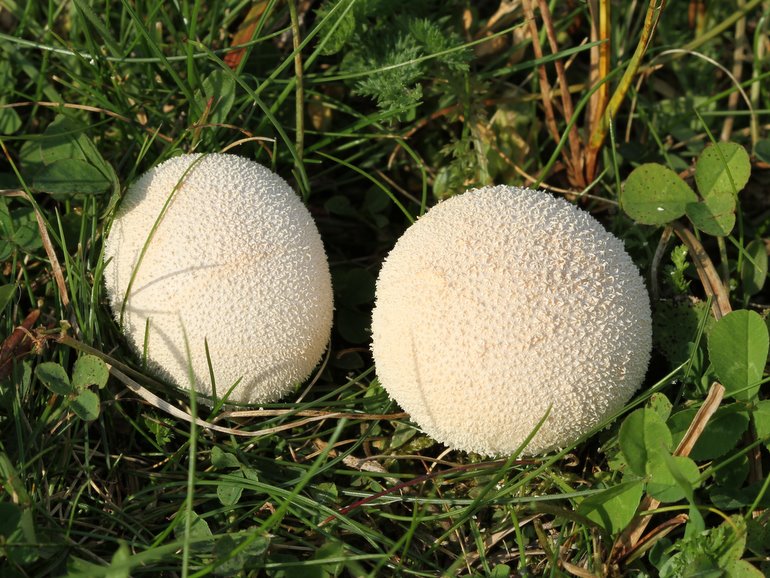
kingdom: Fungi
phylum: Basidiomycota
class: Agaricomycetes
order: Agaricales
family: Lycoperdaceae
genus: Lycoperdon
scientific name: Lycoperdon pratense
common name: flad støvbold
